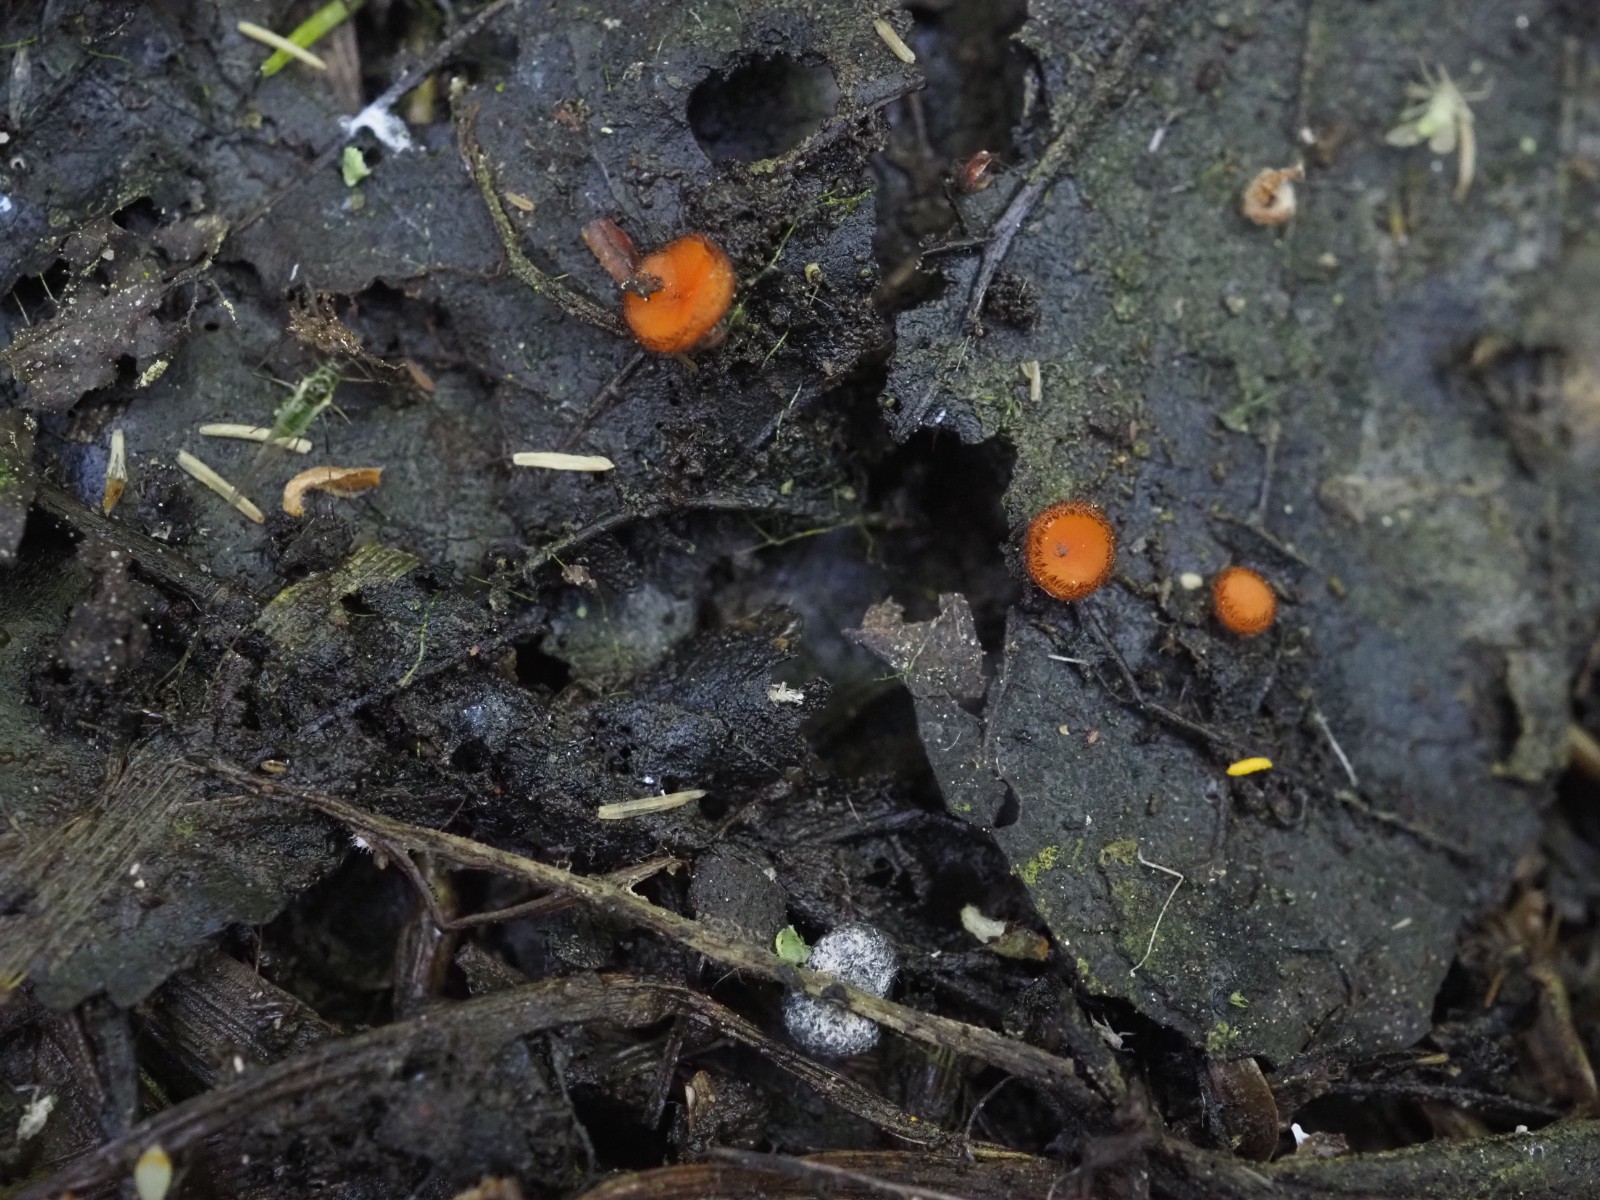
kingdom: Fungi
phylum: Ascomycota
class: Pezizomycetes
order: Pezizales
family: Pyronemataceae
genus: Scutellinia
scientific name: Scutellinia
